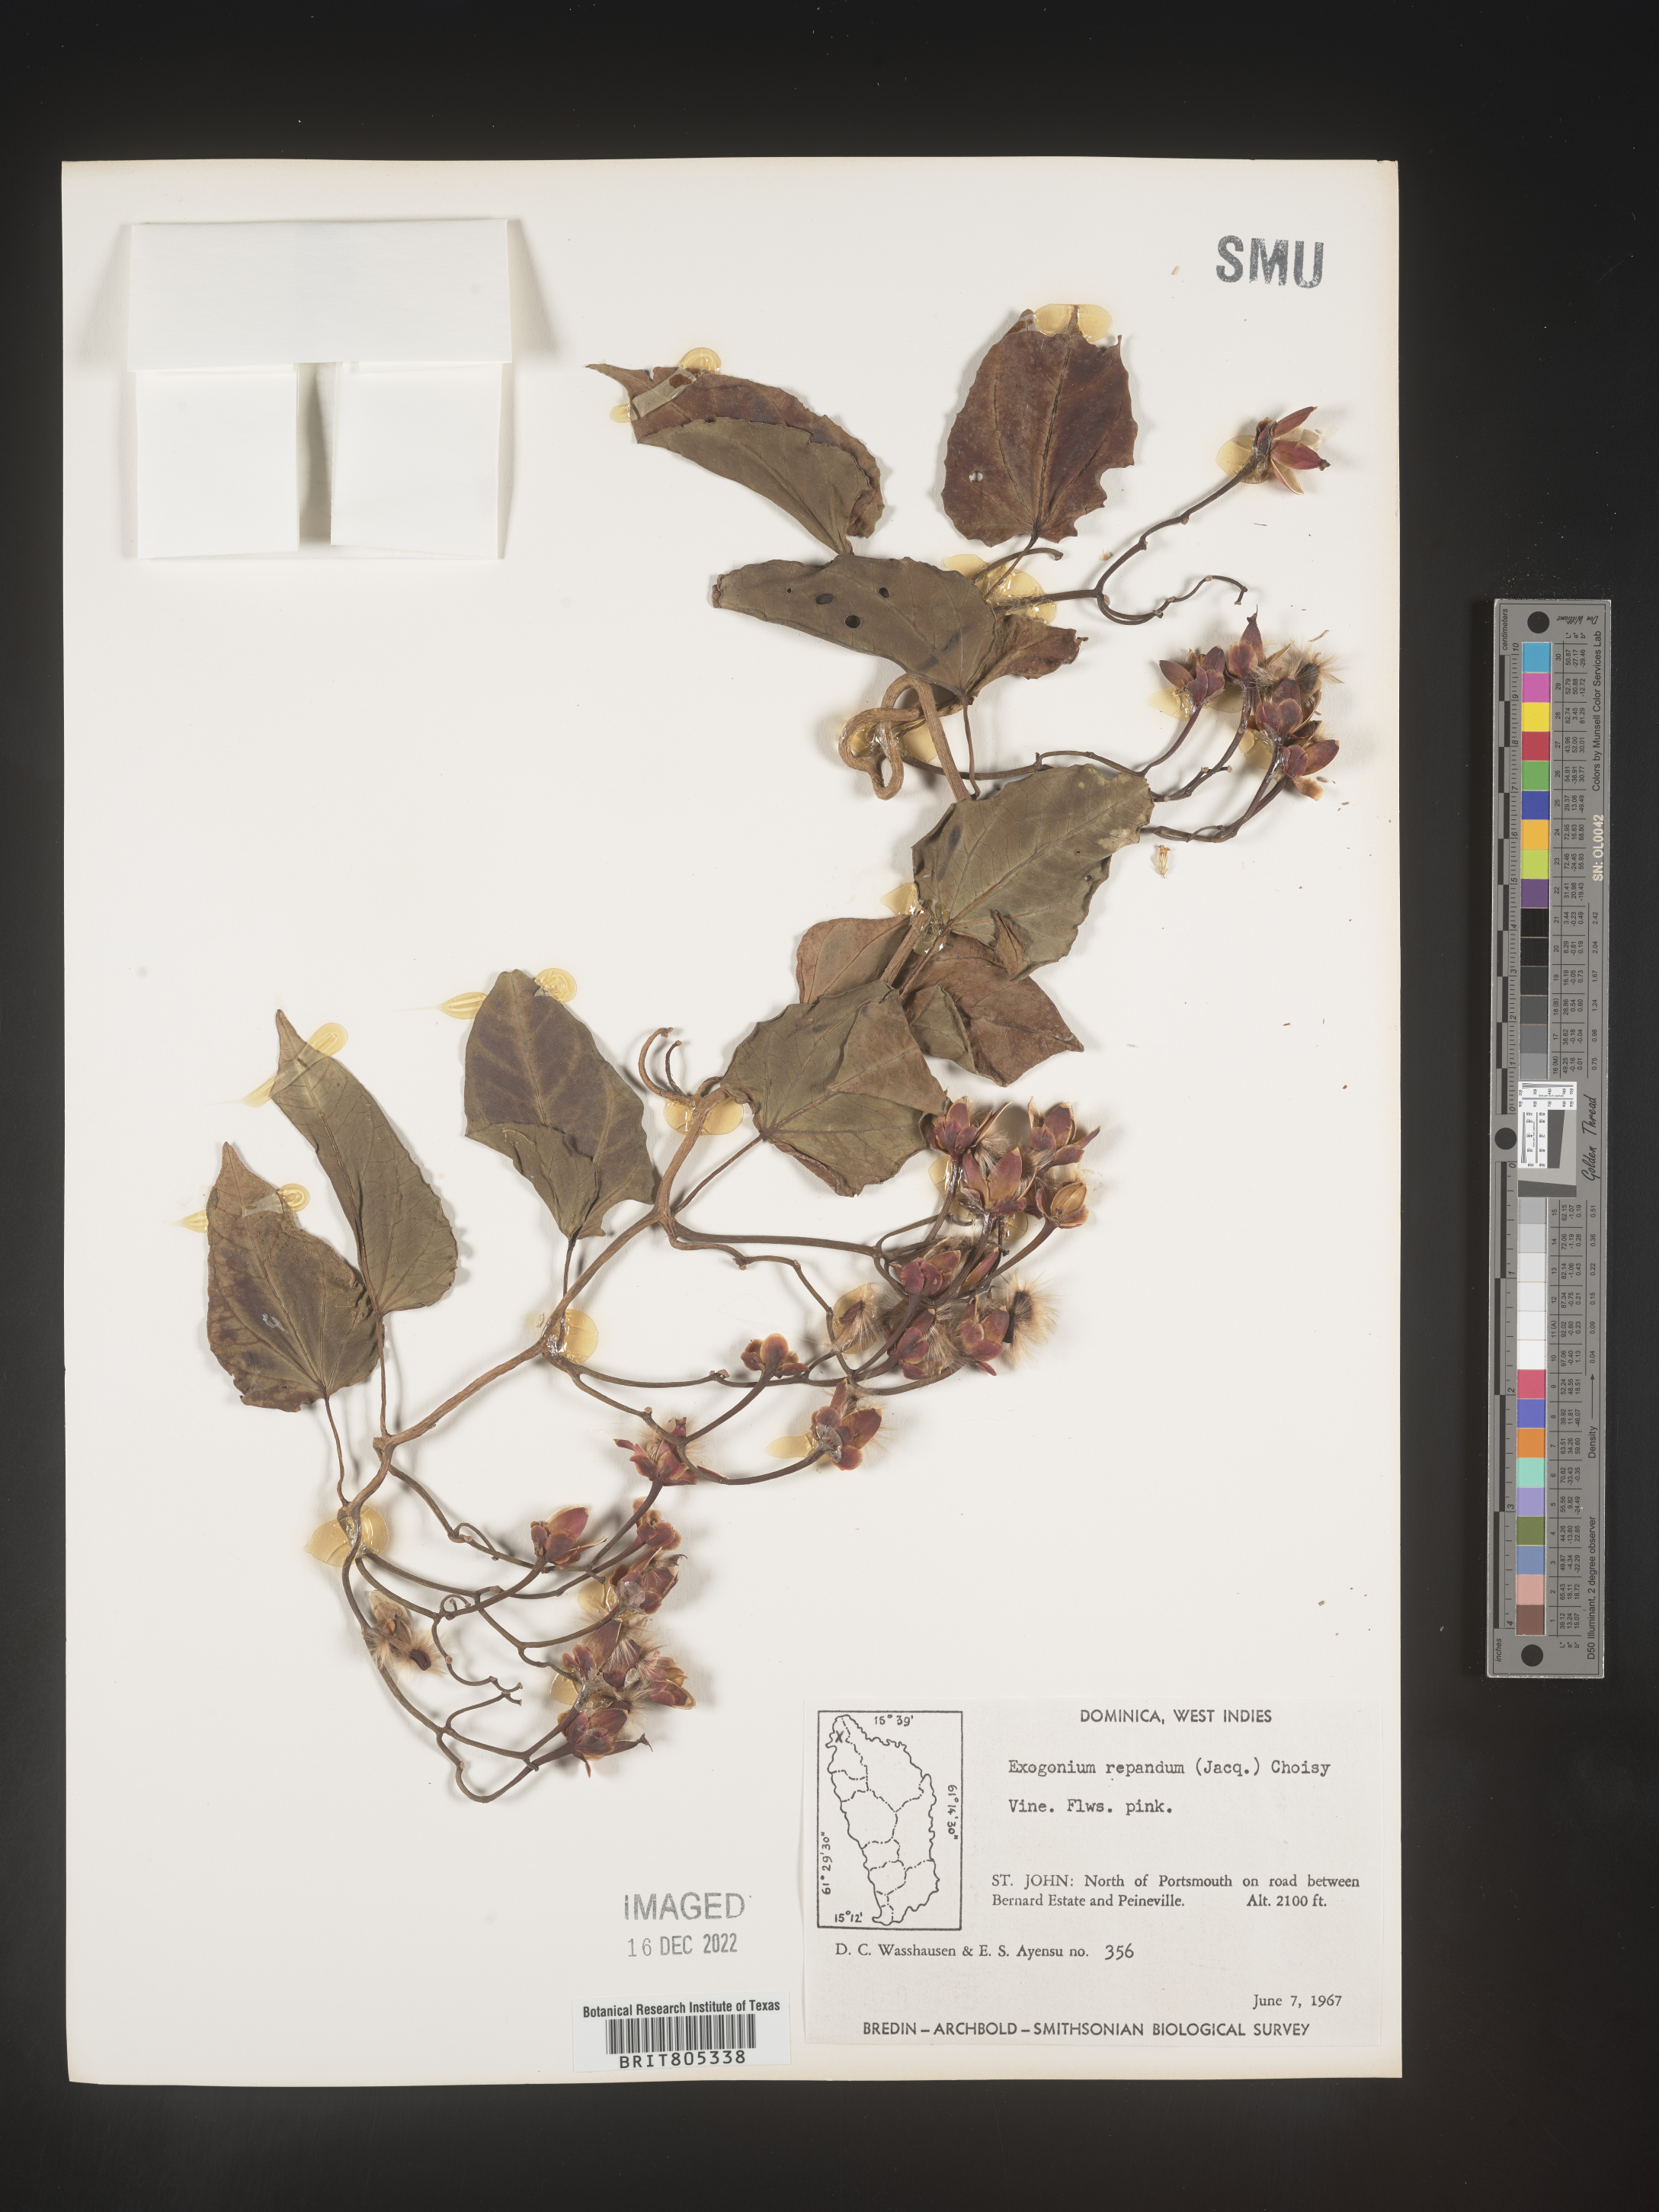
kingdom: Plantae
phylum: Tracheophyta
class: Magnoliopsida
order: Solanales
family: Convolvulaceae
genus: Ipomoea
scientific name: Ipomoea
